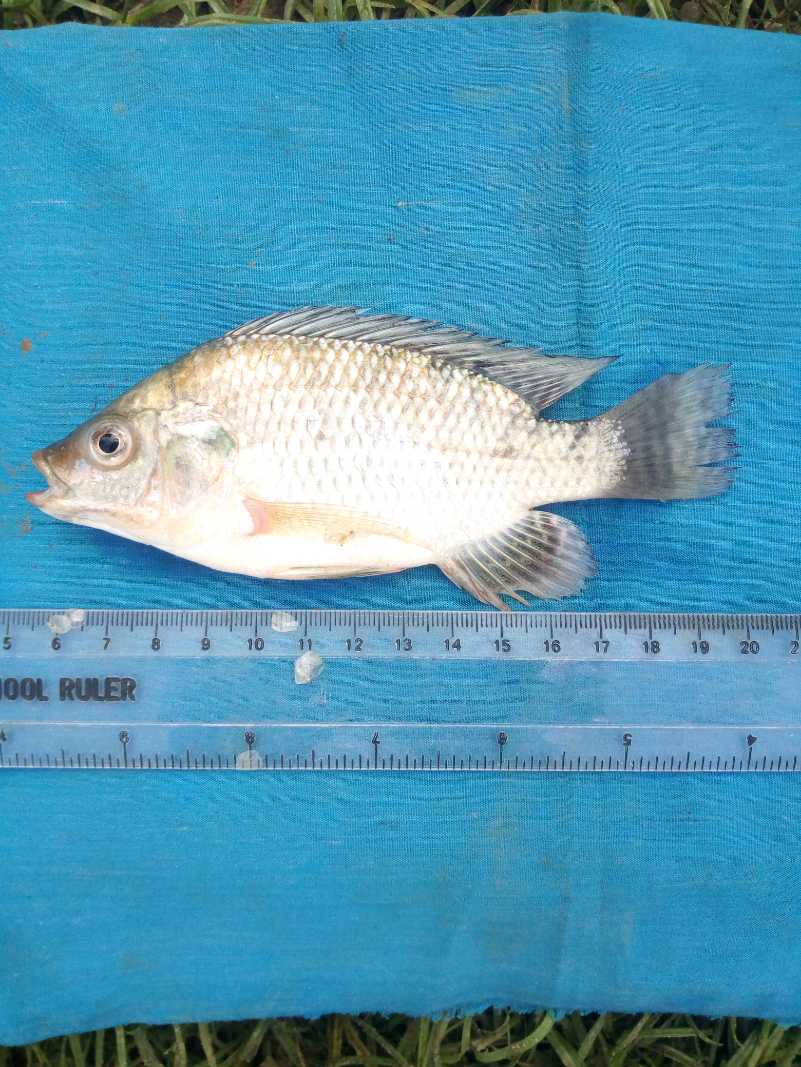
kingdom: Animalia
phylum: Chordata
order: Perciformes
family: Cichlidae
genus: Oreochromis
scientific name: Oreochromis spilurus
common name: Sabaki tilapia
